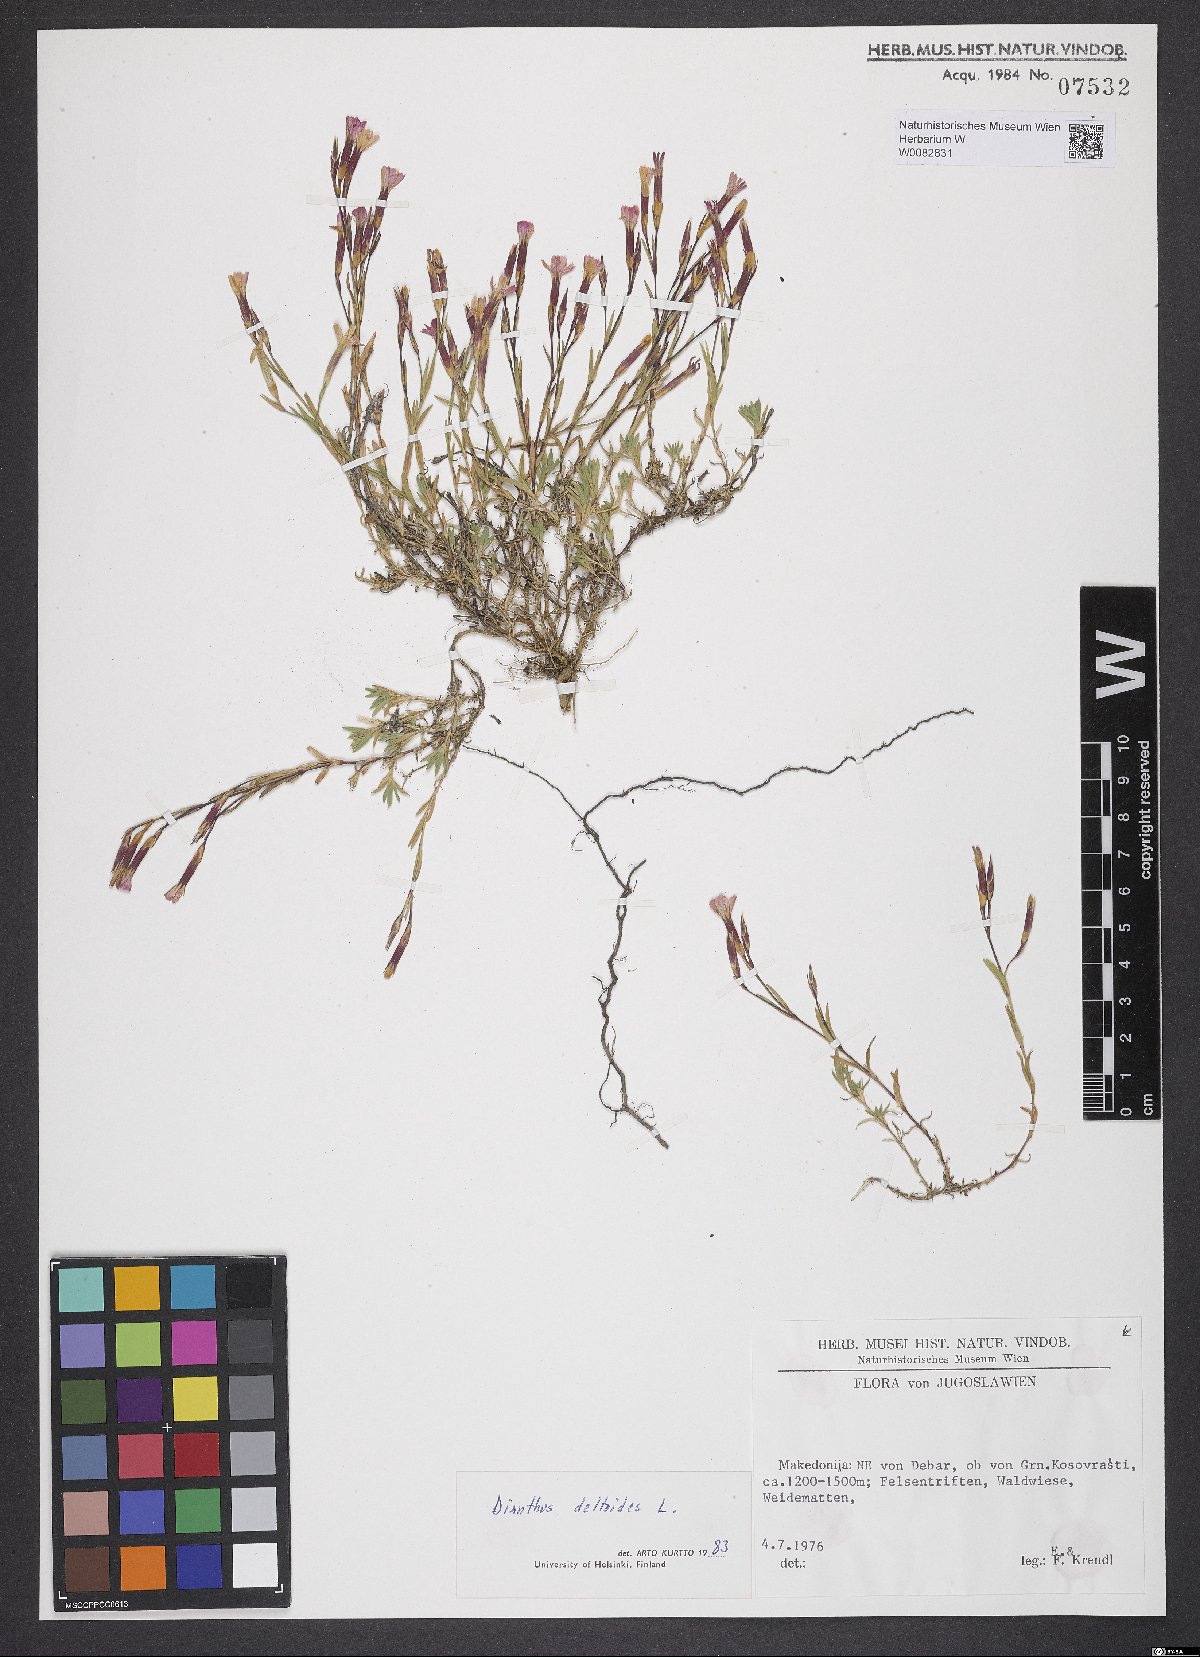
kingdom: Plantae
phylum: Tracheophyta
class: Magnoliopsida
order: Caryophyllales
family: Caryophyllaceae
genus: Dianthus
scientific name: Dianthus deltoides
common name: Maiden pink
